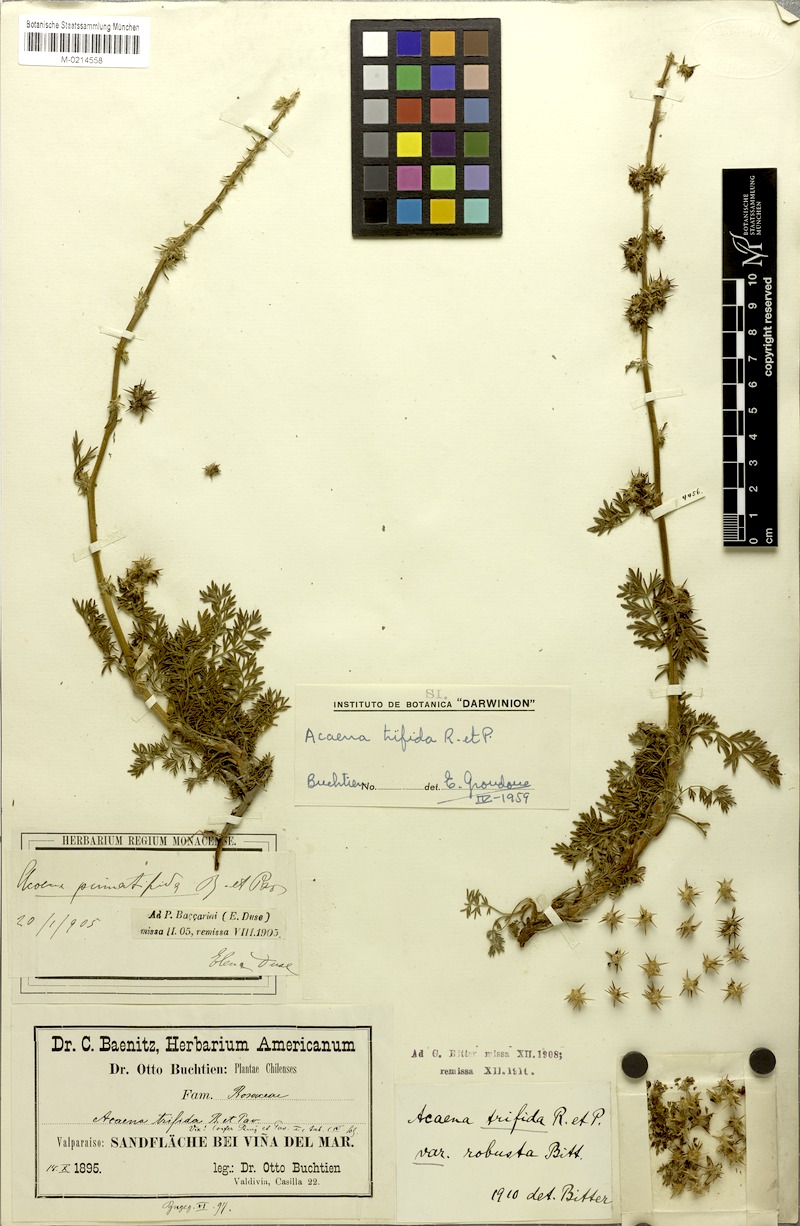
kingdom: Plantae
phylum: Tracheophyta
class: Magnoliopsida
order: Rosales
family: Rosaceae
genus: Acaena
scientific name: Acaena trifida
